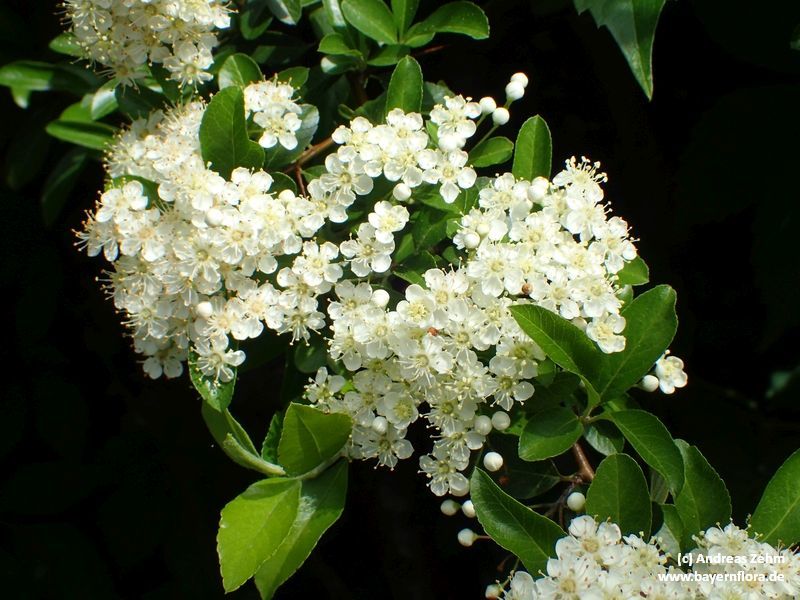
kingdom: Plantae
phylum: Tracheophyta
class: Magnoliopsida
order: Rosales
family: Rosaceae
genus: Pyracantha
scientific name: Pyracantha coccinea
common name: Firethorn
